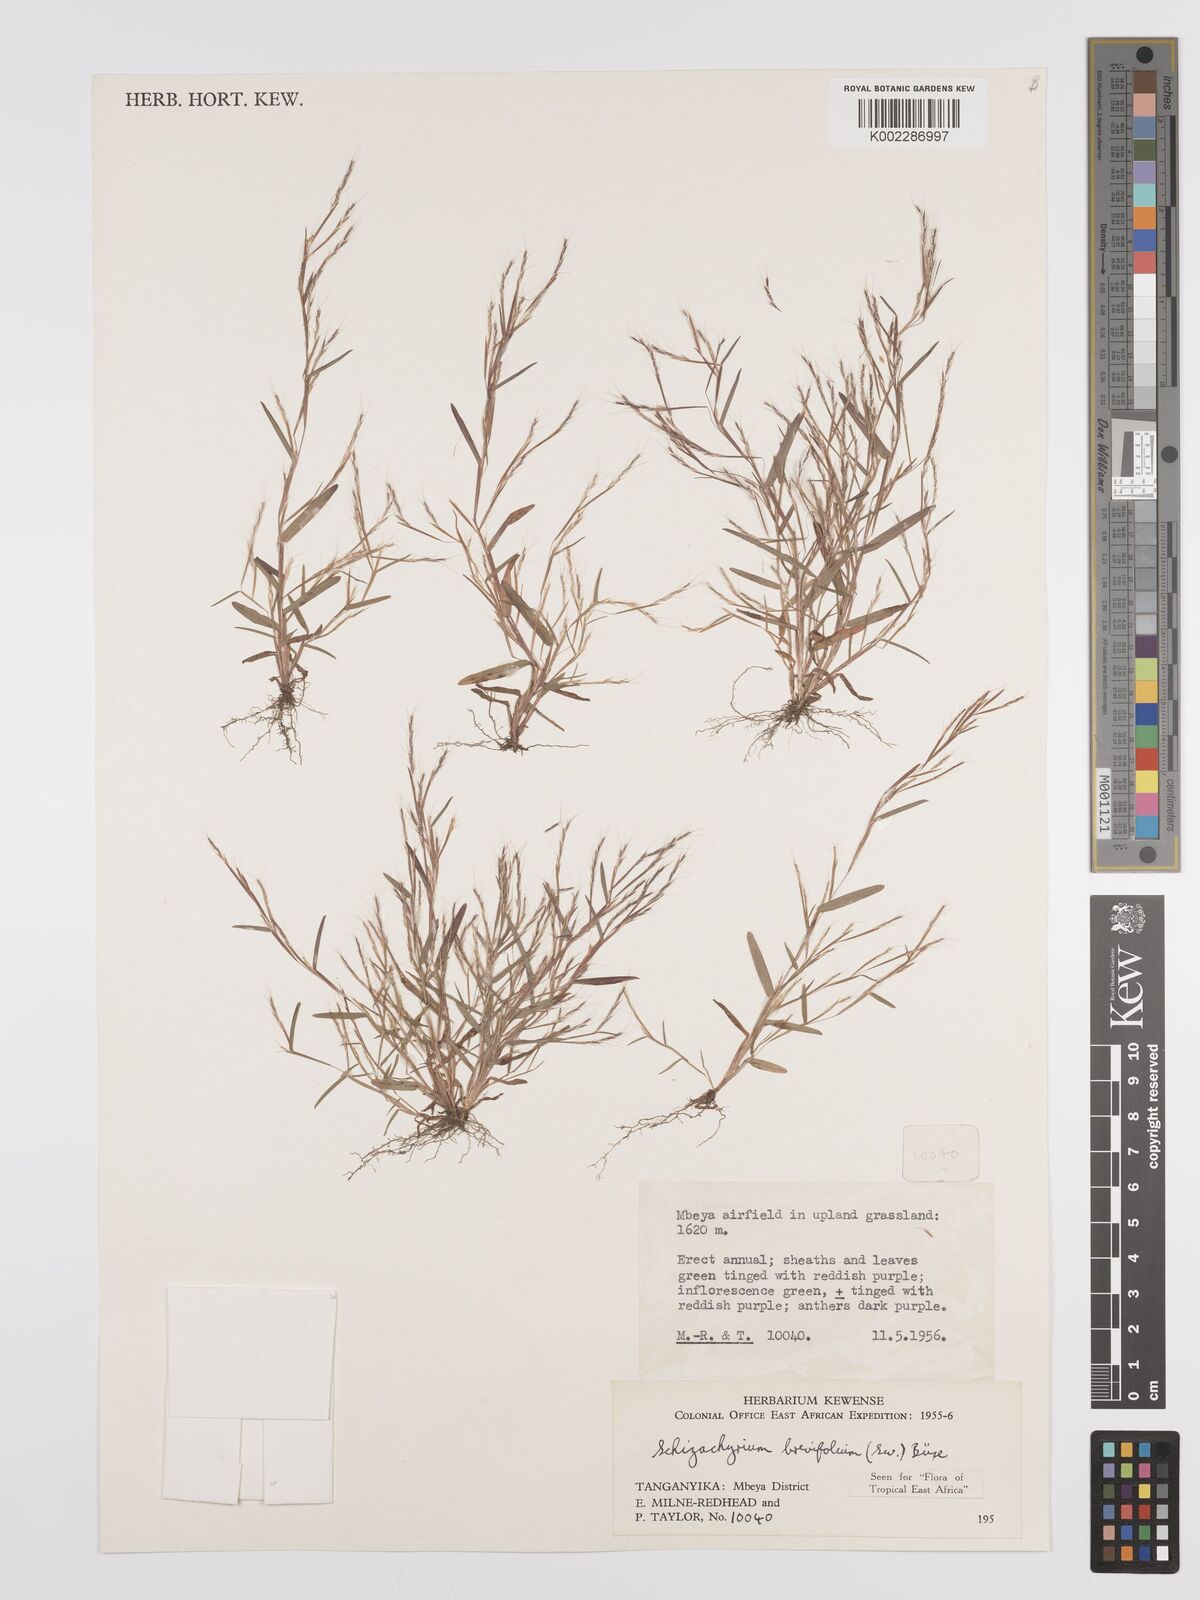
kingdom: Plantae
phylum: Tracheophyta
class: Liliopsida
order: Poales
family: Poaceae
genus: Schizachyrium
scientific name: Schizachyrium brevifolium
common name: Serillo dulce
